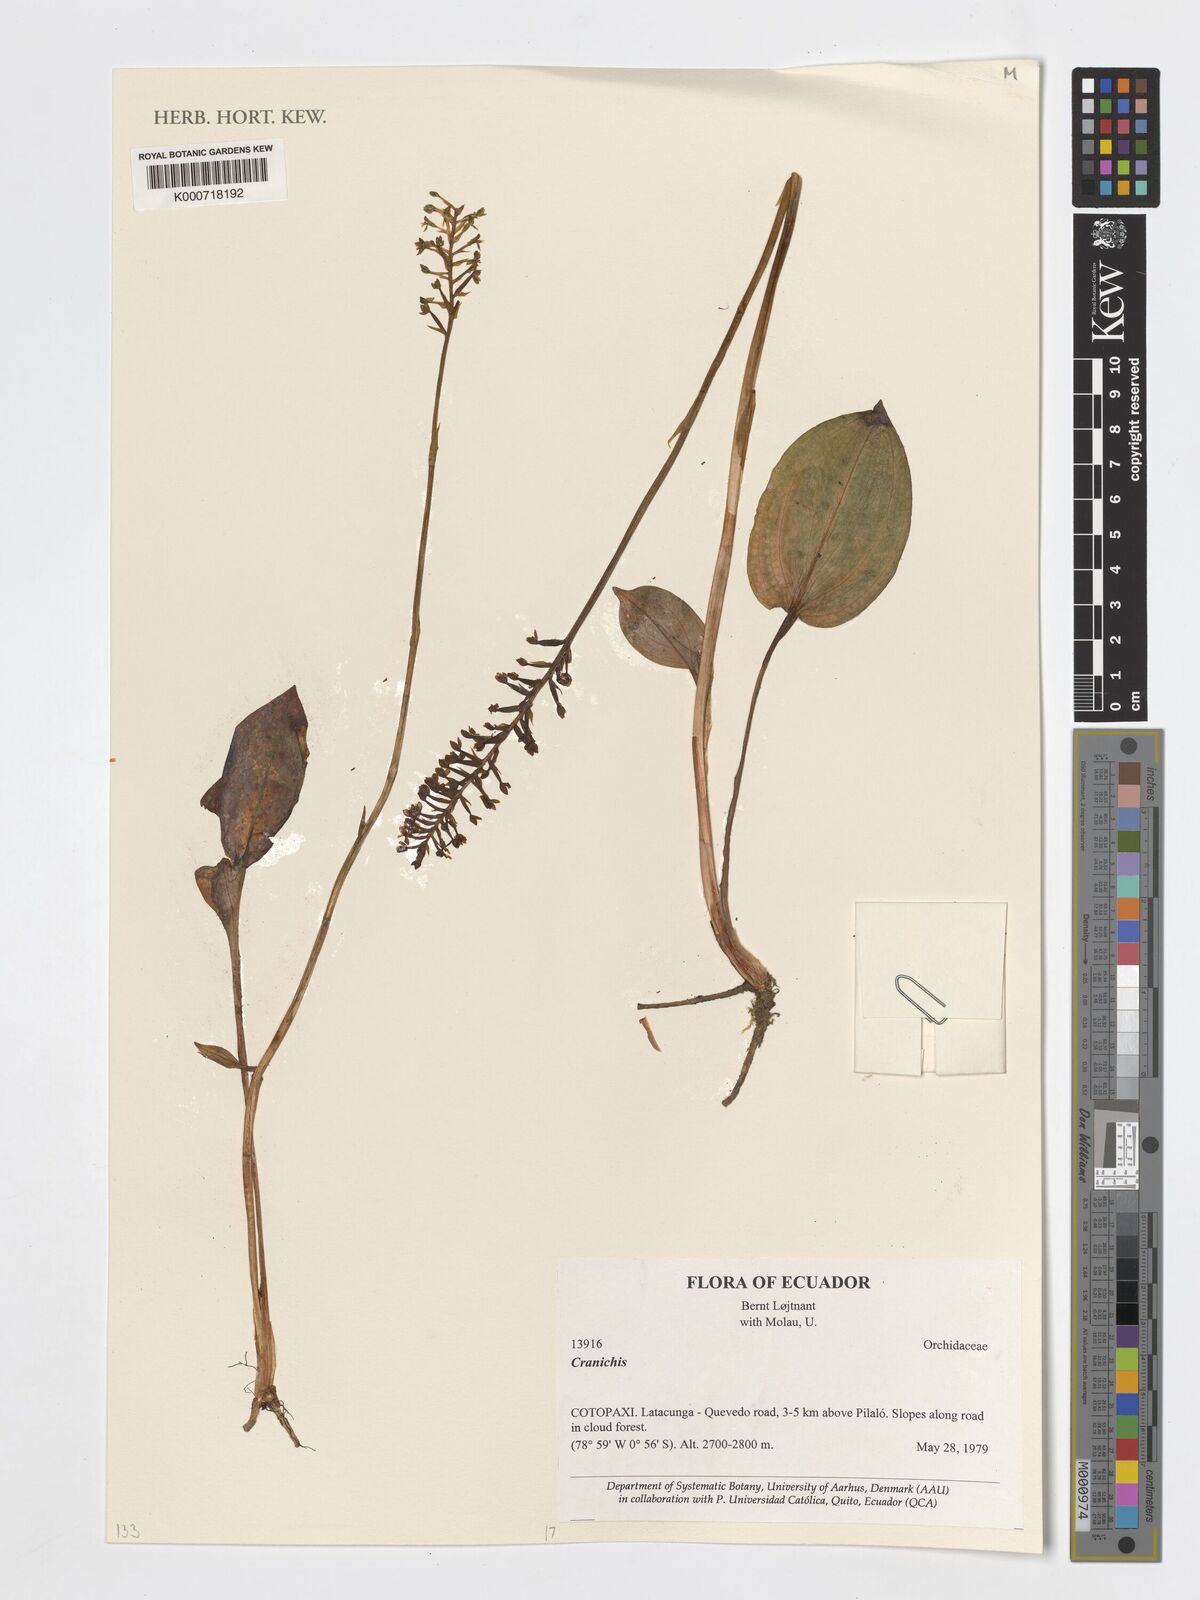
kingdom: Plantae
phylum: Tracheophyta
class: Liliopsida
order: Asparagales
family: Orchidaceae
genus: Cranichis
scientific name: Cranichis
